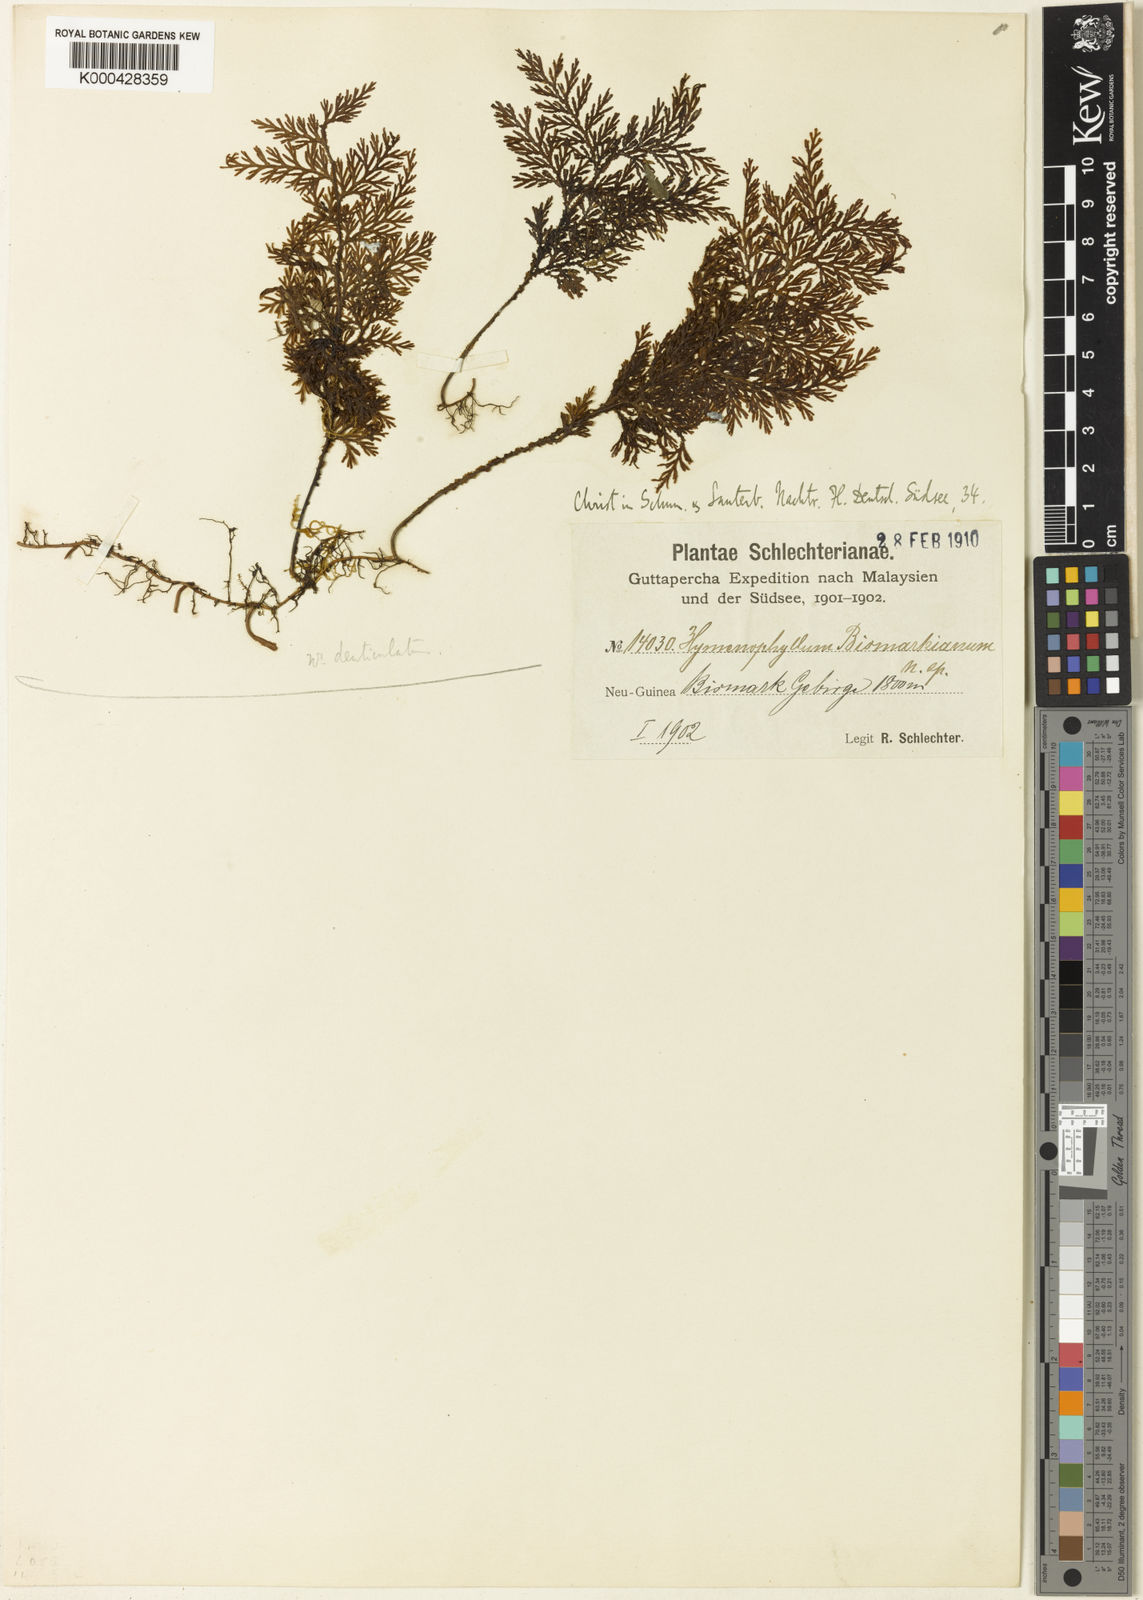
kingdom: Plantae
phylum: Tracheophyta
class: Polypodiopsida
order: Hymenophyllales
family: Hymenophyllaceae
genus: Hymenophyllum
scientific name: Hymenophyllum reinwardtii
